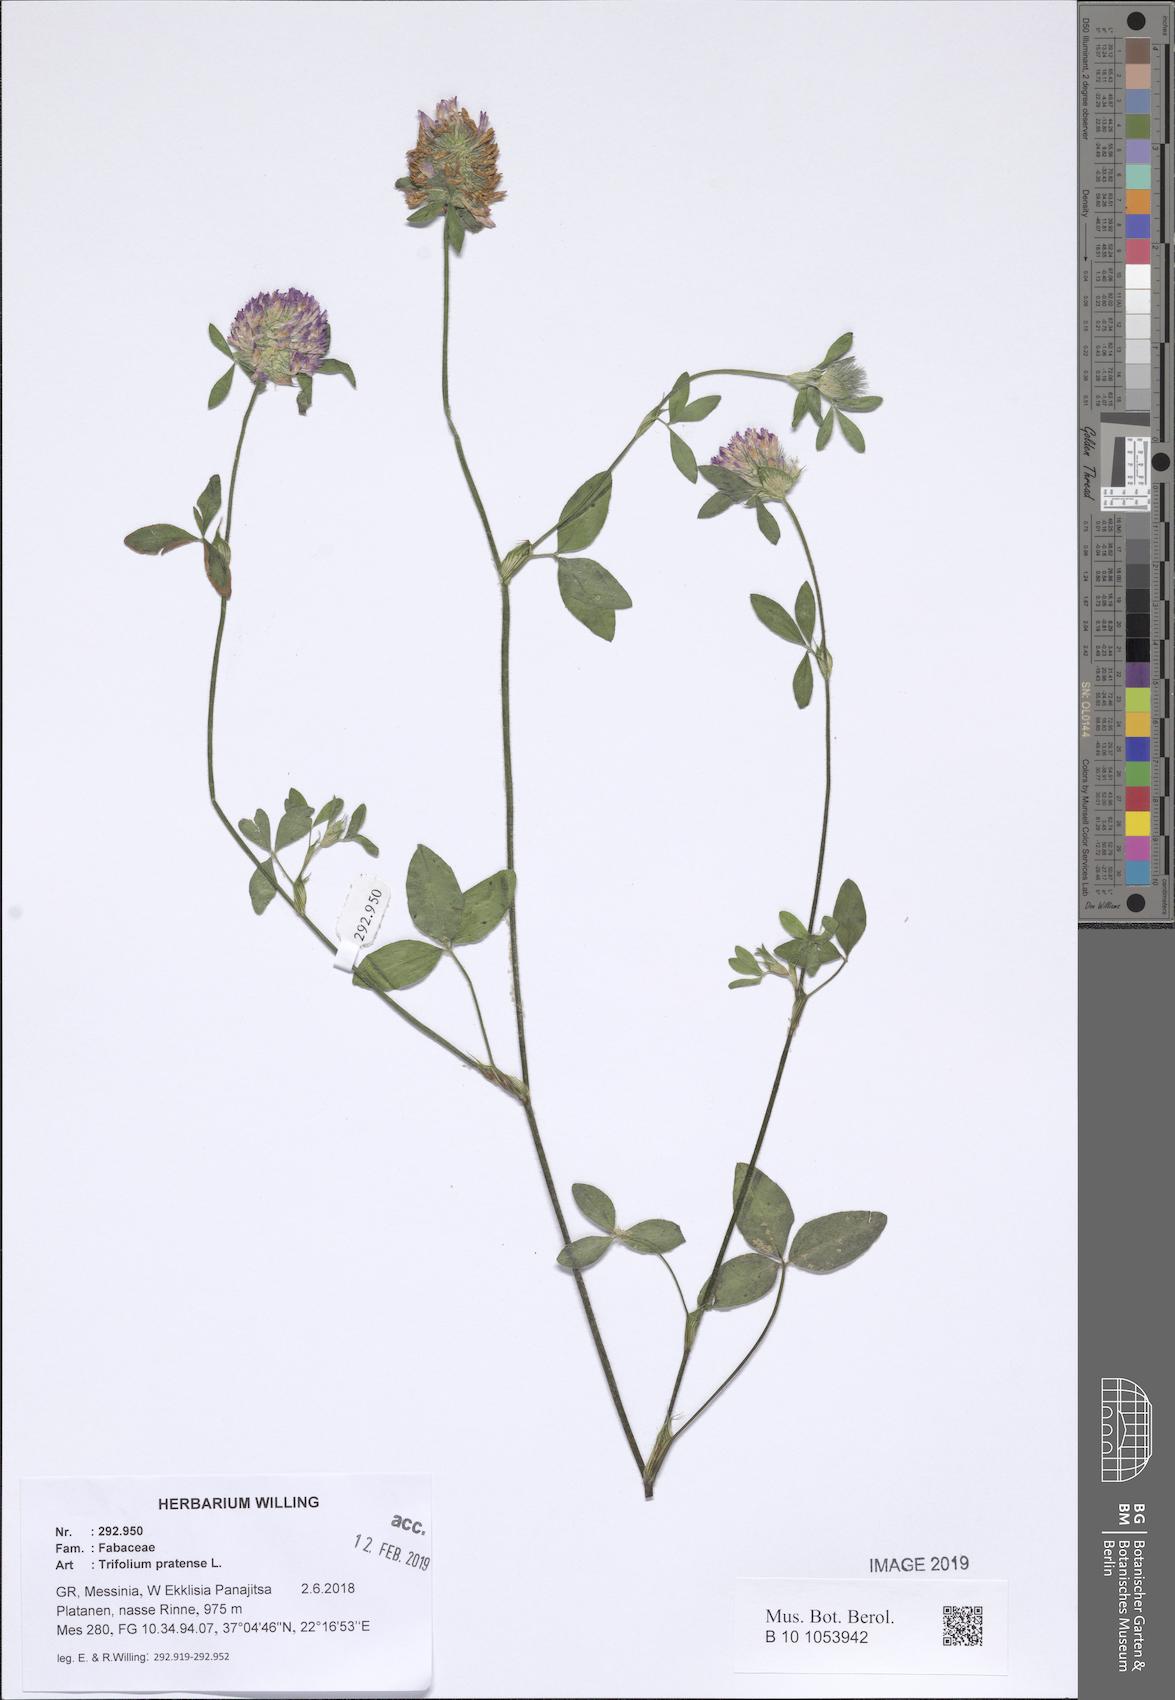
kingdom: Plantae
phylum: Tracheophyta
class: Magnoliopsida
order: Fabales
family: Fabaceae
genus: Trifolium
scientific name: Trifolium pratense
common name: Red clover
